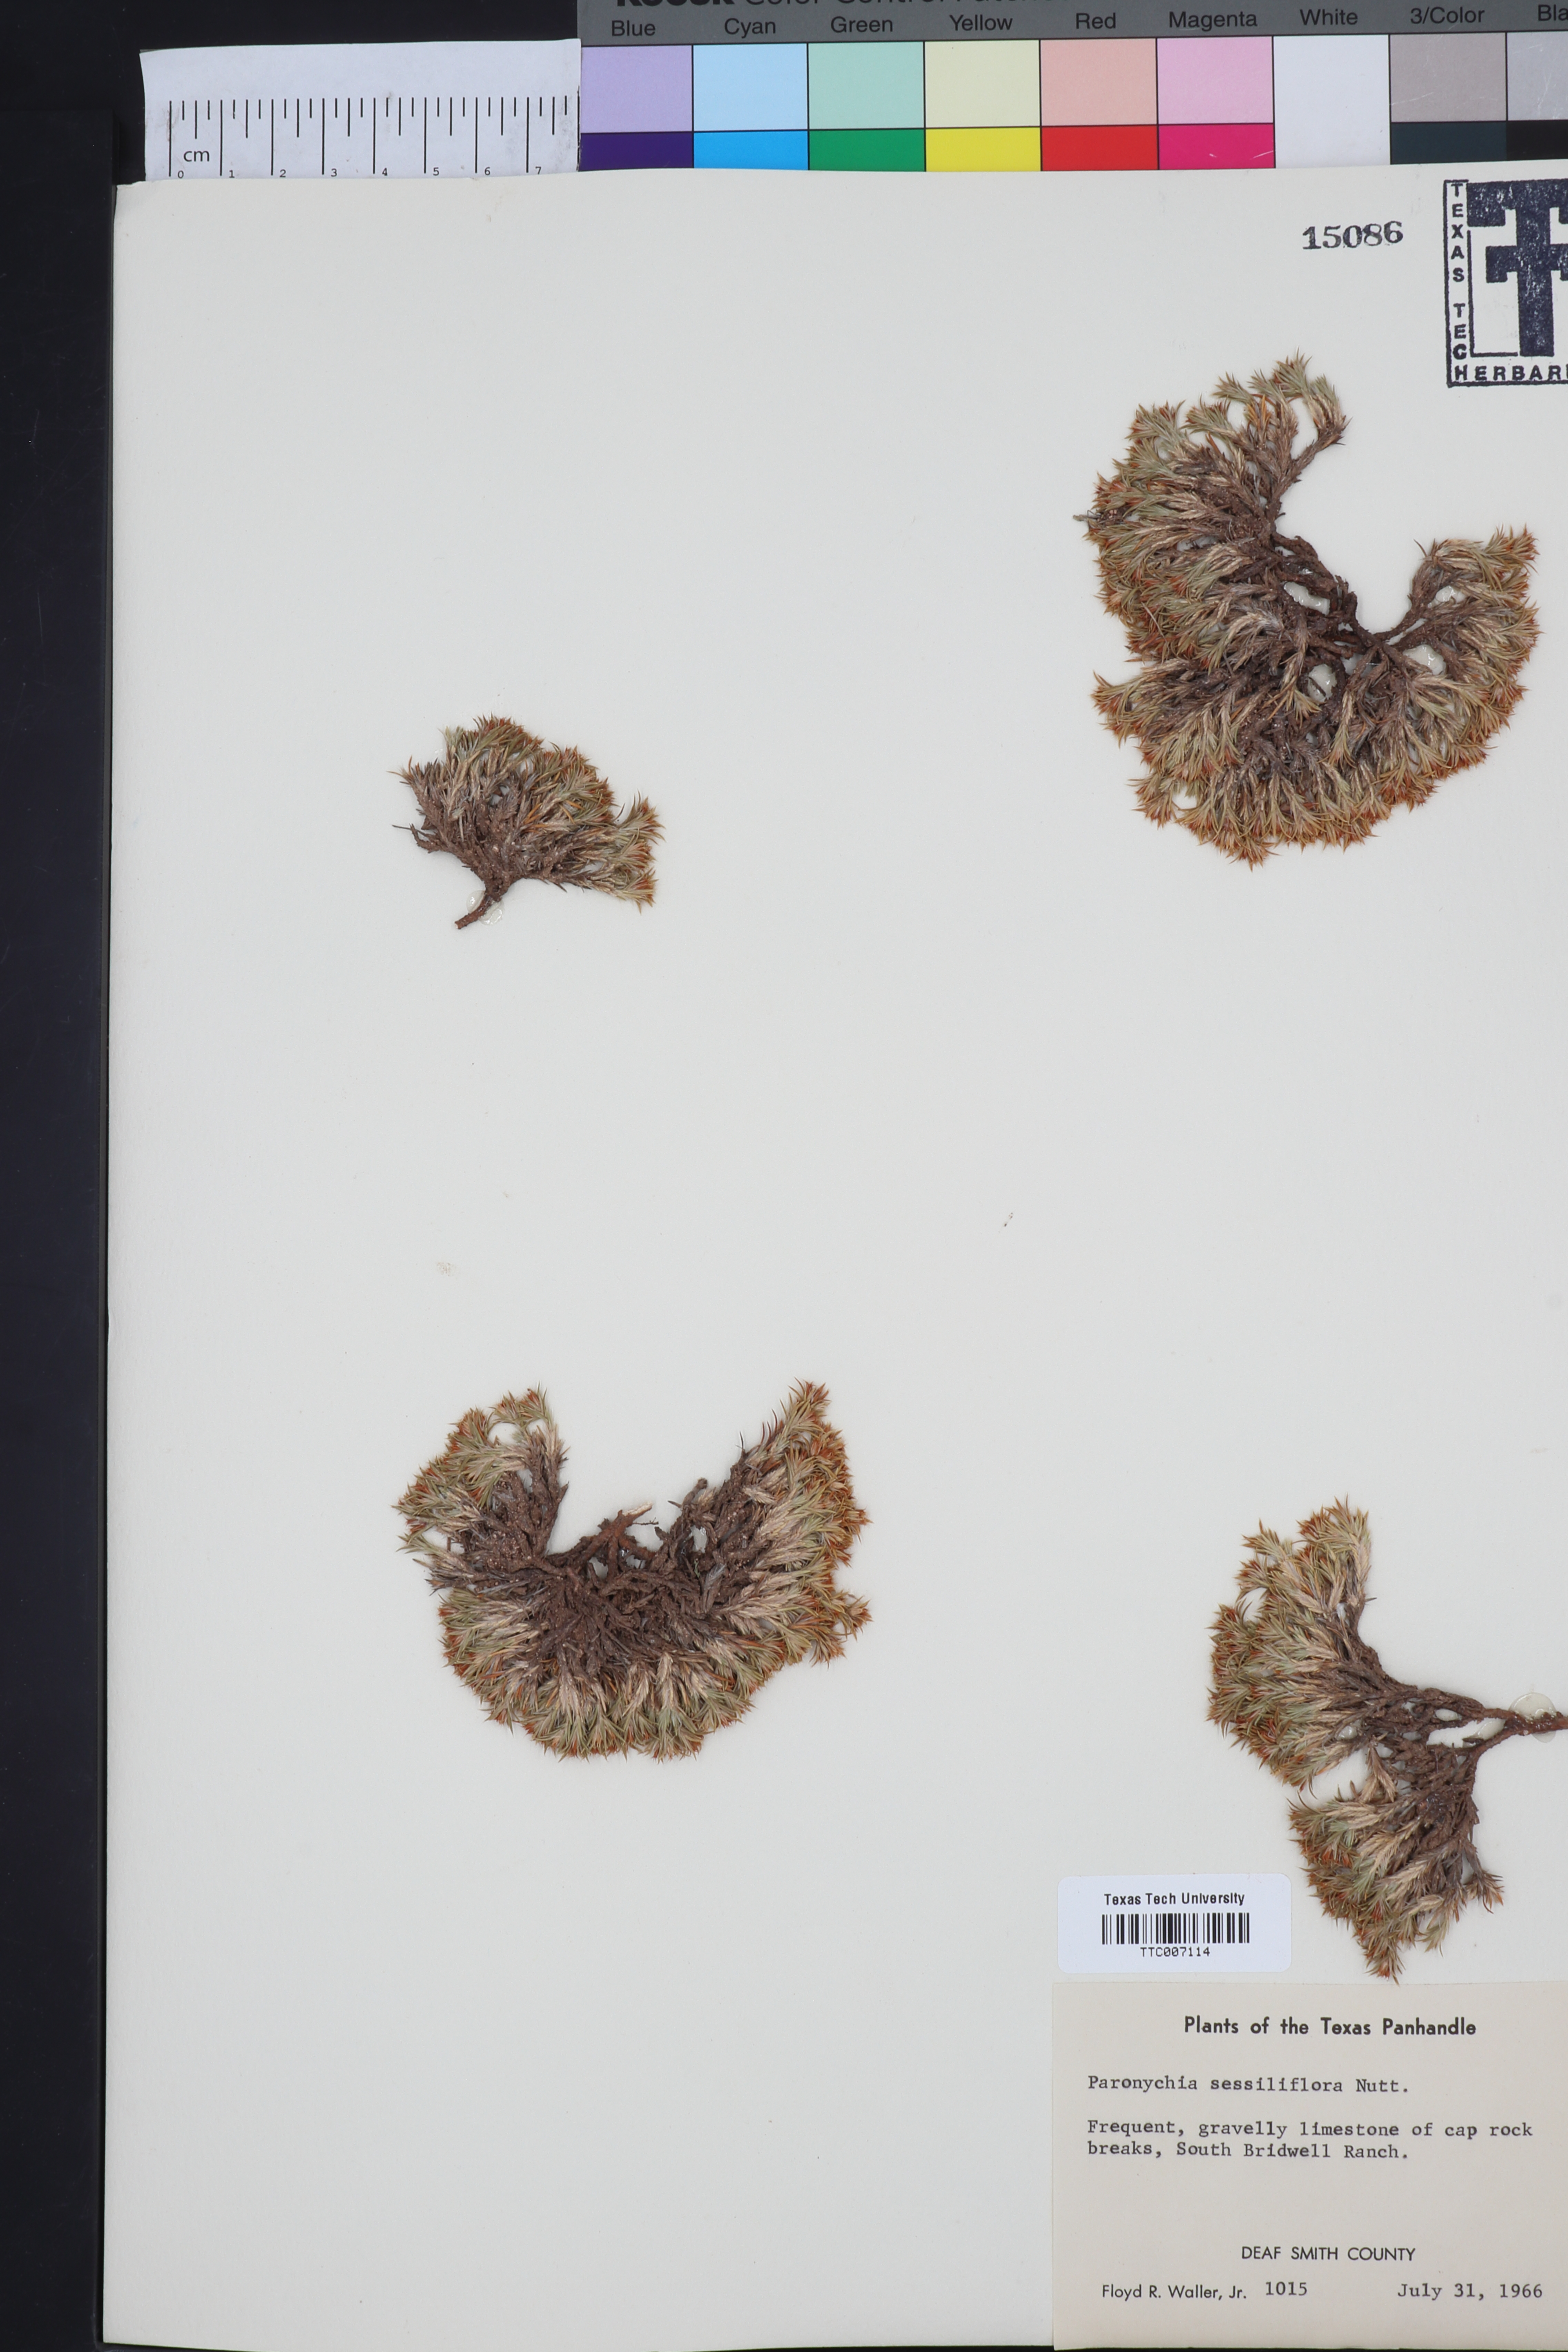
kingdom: Plantae
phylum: Tracheophyta
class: Magnoliopsida
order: Caryophyllales
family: Caryophyllaceae
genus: Paronychia
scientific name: Paronychia sessiliflora
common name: Creeping nailwort
